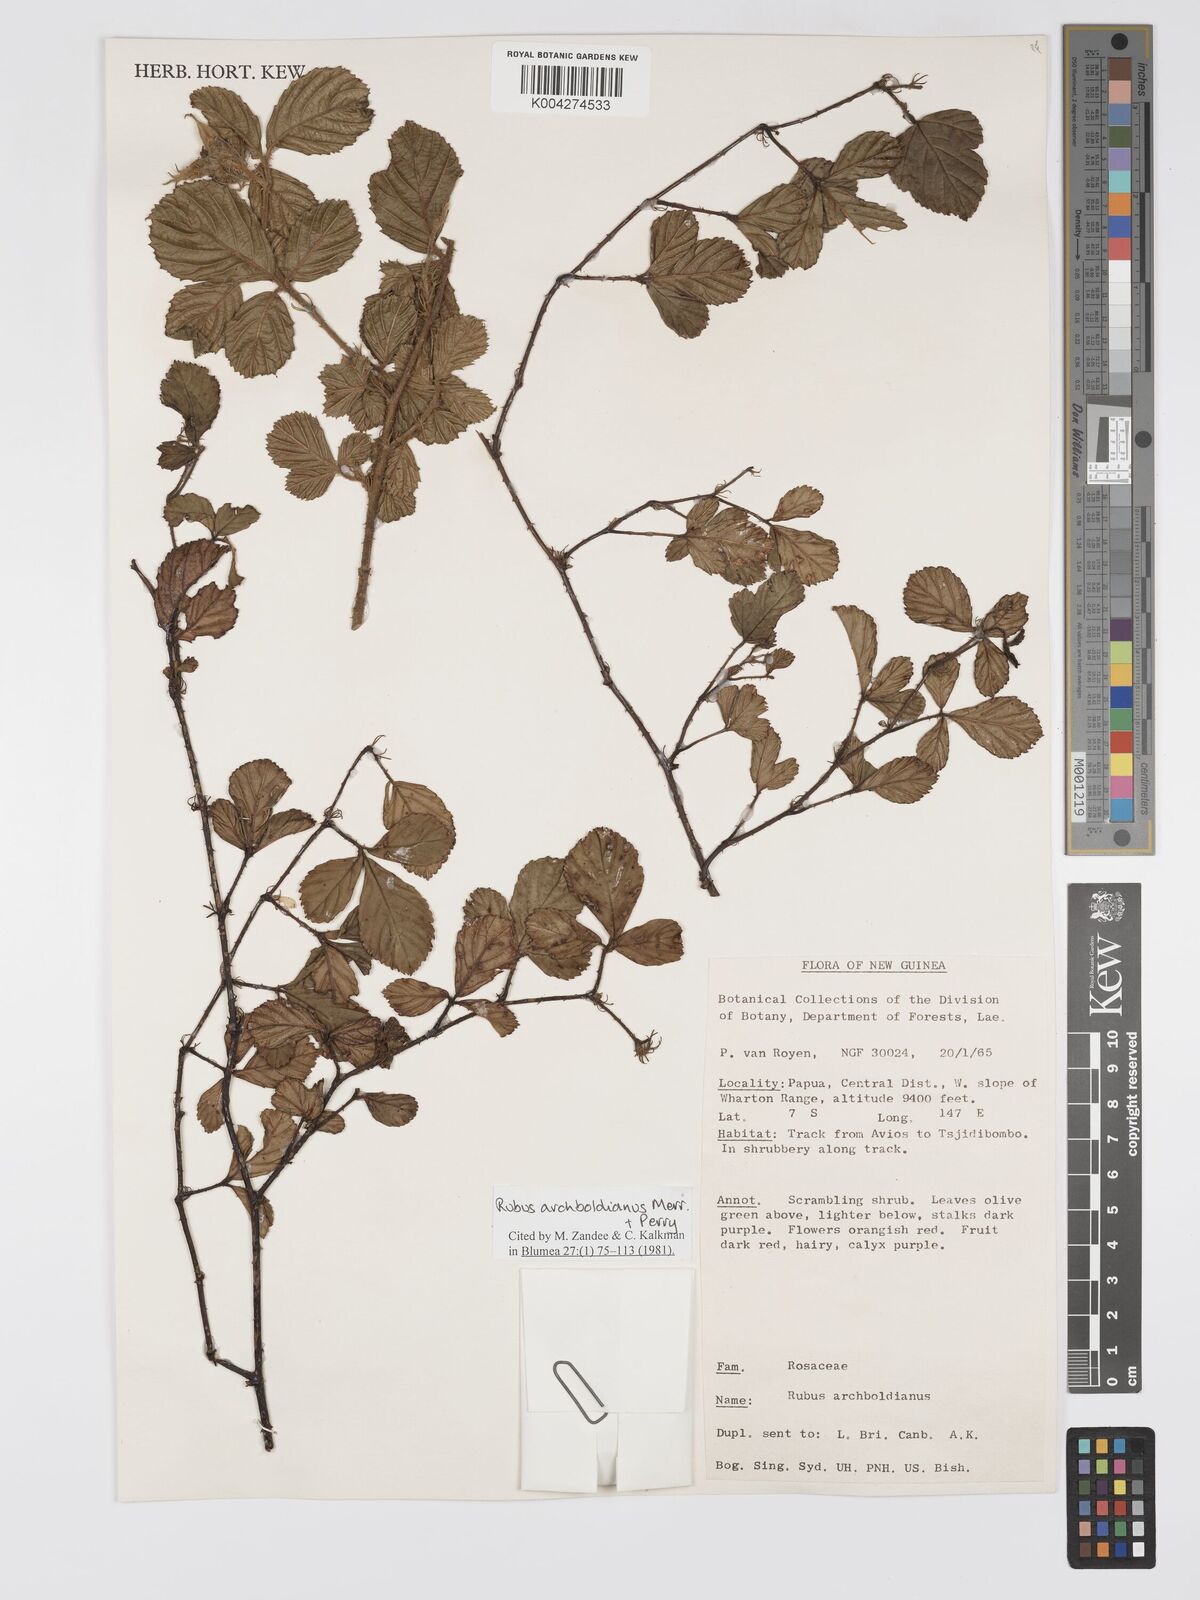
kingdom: Plantae
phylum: Tracheophyta
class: Magnoliopsida
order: Rosales
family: Rosaceae
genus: Rubus
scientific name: Rubus archboldianus
